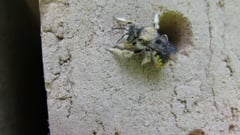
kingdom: Animalia
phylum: Arthropoda
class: Insecta
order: Hymenoptera
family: Megachilidae
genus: Anthidium
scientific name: Anthidium manicatum
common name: Wool carder bee
